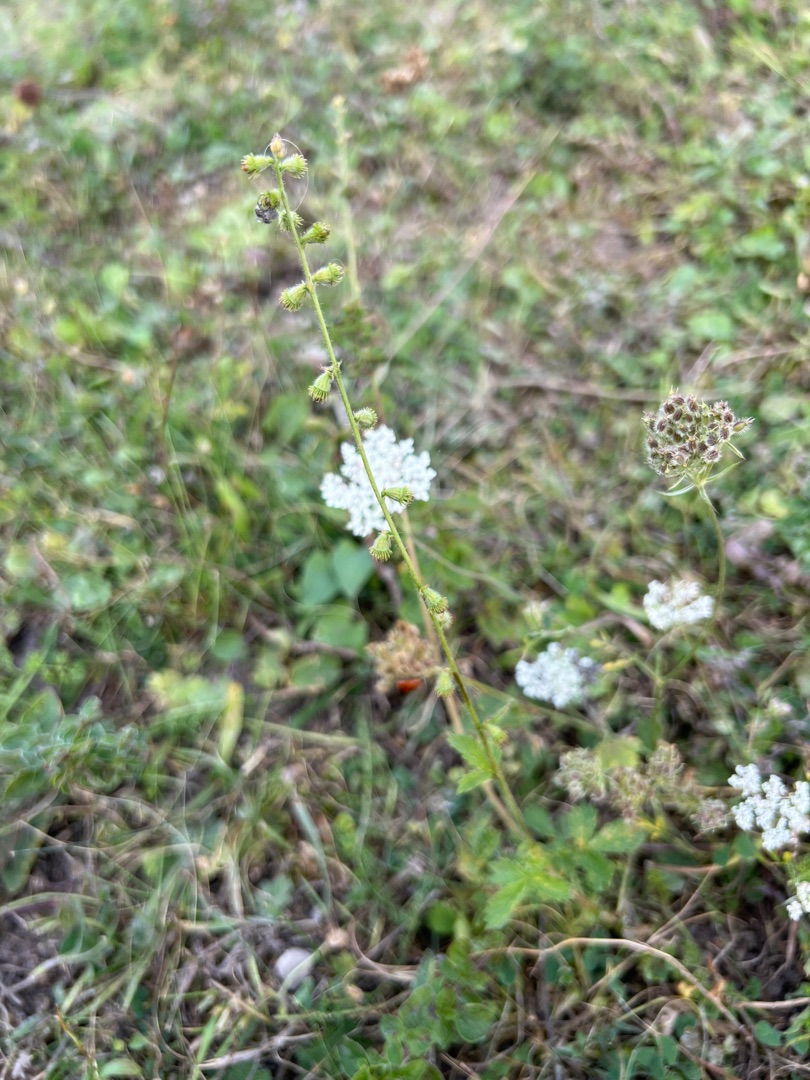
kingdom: Plantae
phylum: Tracheophyta
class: Magnoliopsida
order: Rosales
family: Rosaceae
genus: Agrimonia
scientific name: Agrimonia eupatoria
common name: Almindelig agermåne
